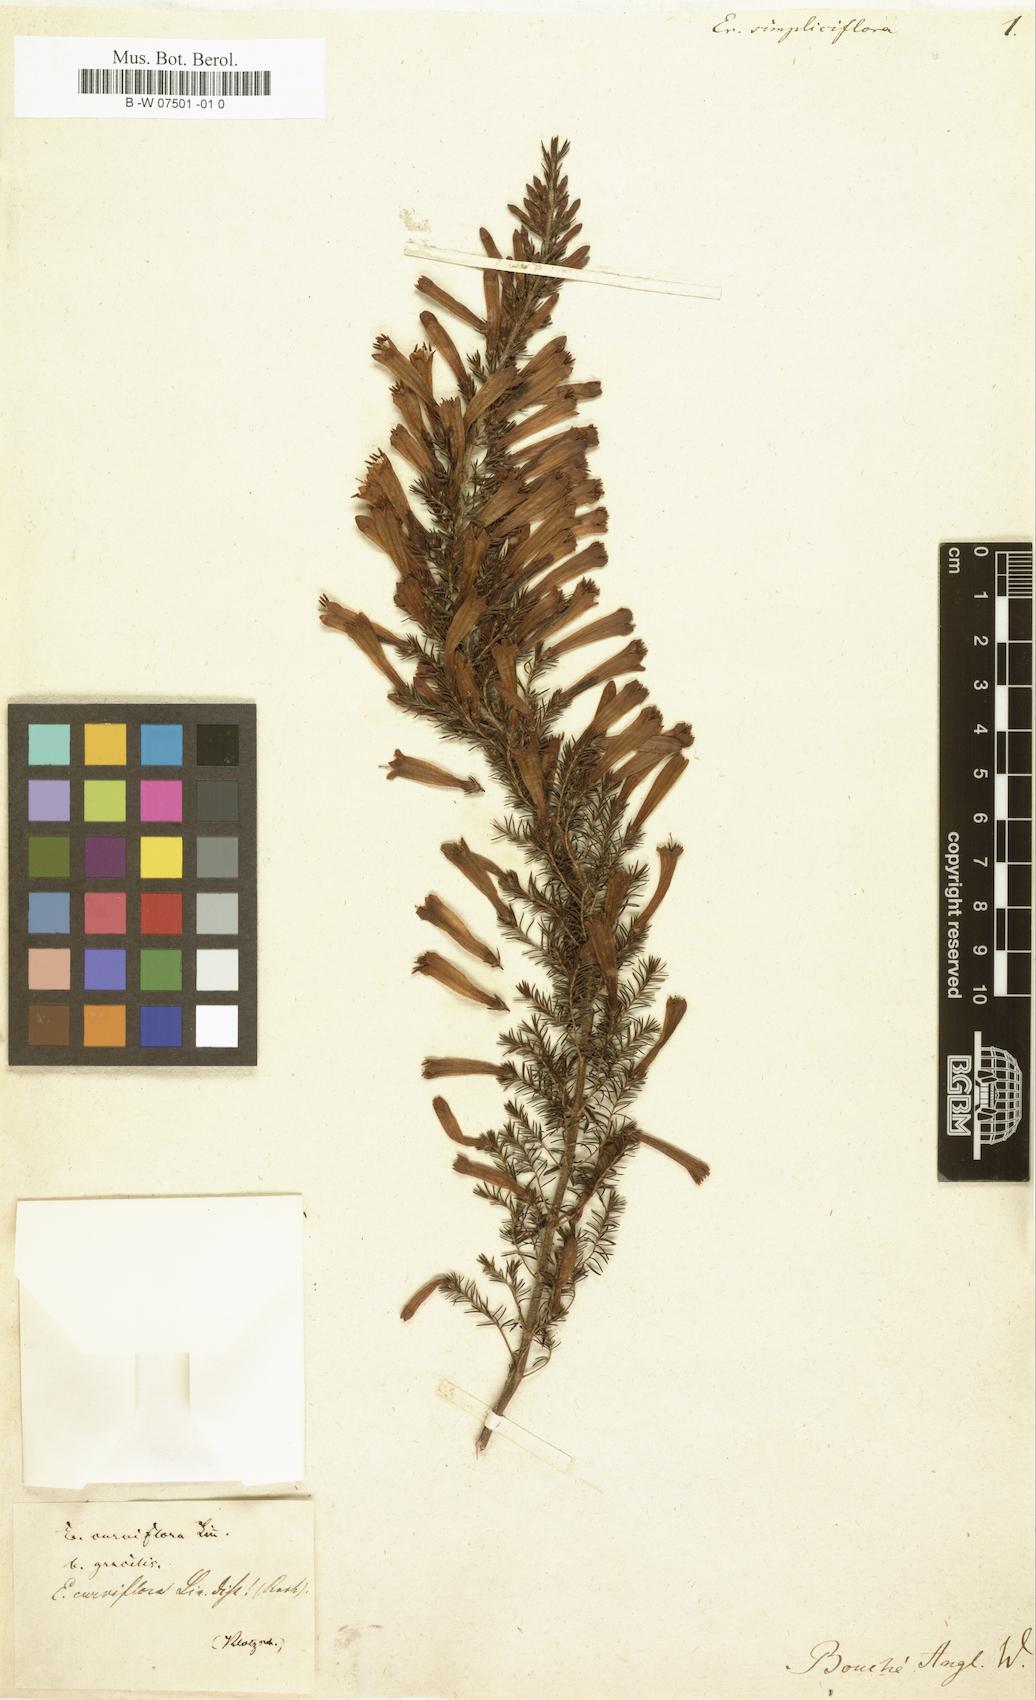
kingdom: Plantae
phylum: Tracheophyta
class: Magnoliopsida
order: Ericales
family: Ericaceae
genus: Erica
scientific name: Erica curviflora
